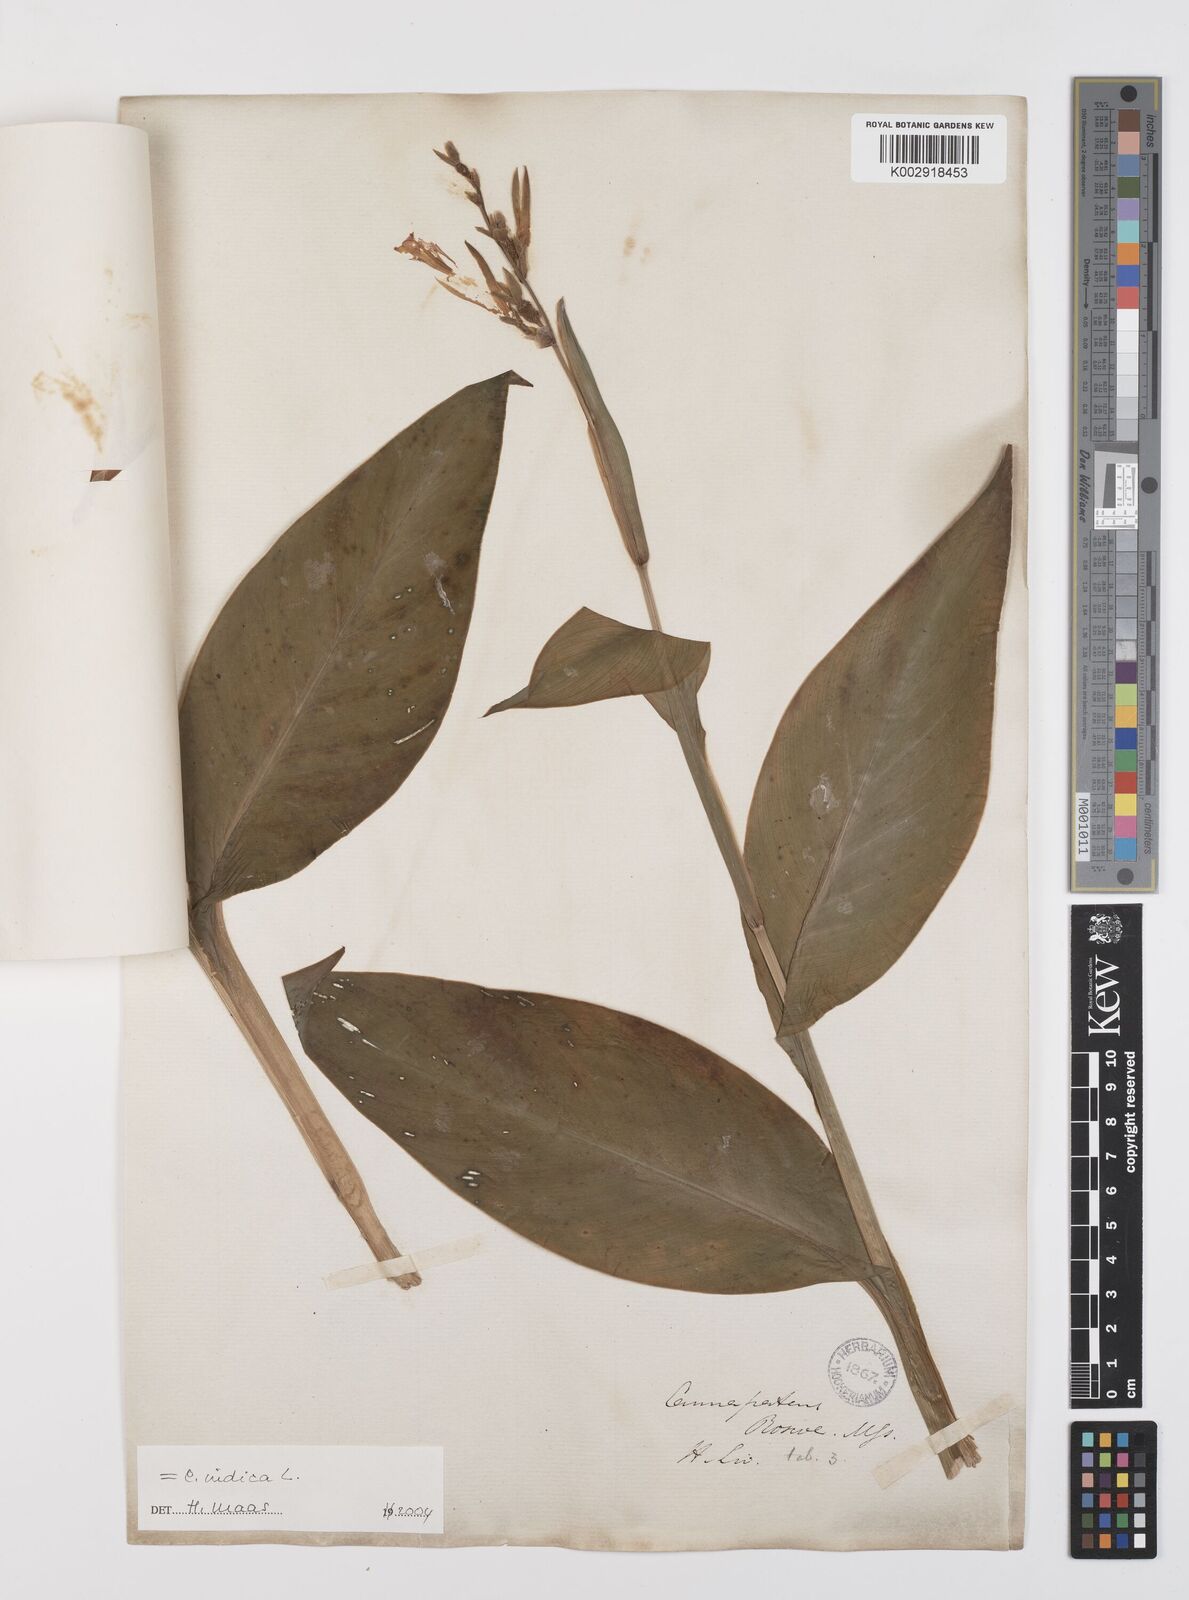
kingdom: Plantae
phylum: Tracheophyta
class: Liliopsida
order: Zingiberales
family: Cannaceae
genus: Canna
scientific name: Canna indica
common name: Indian shot
